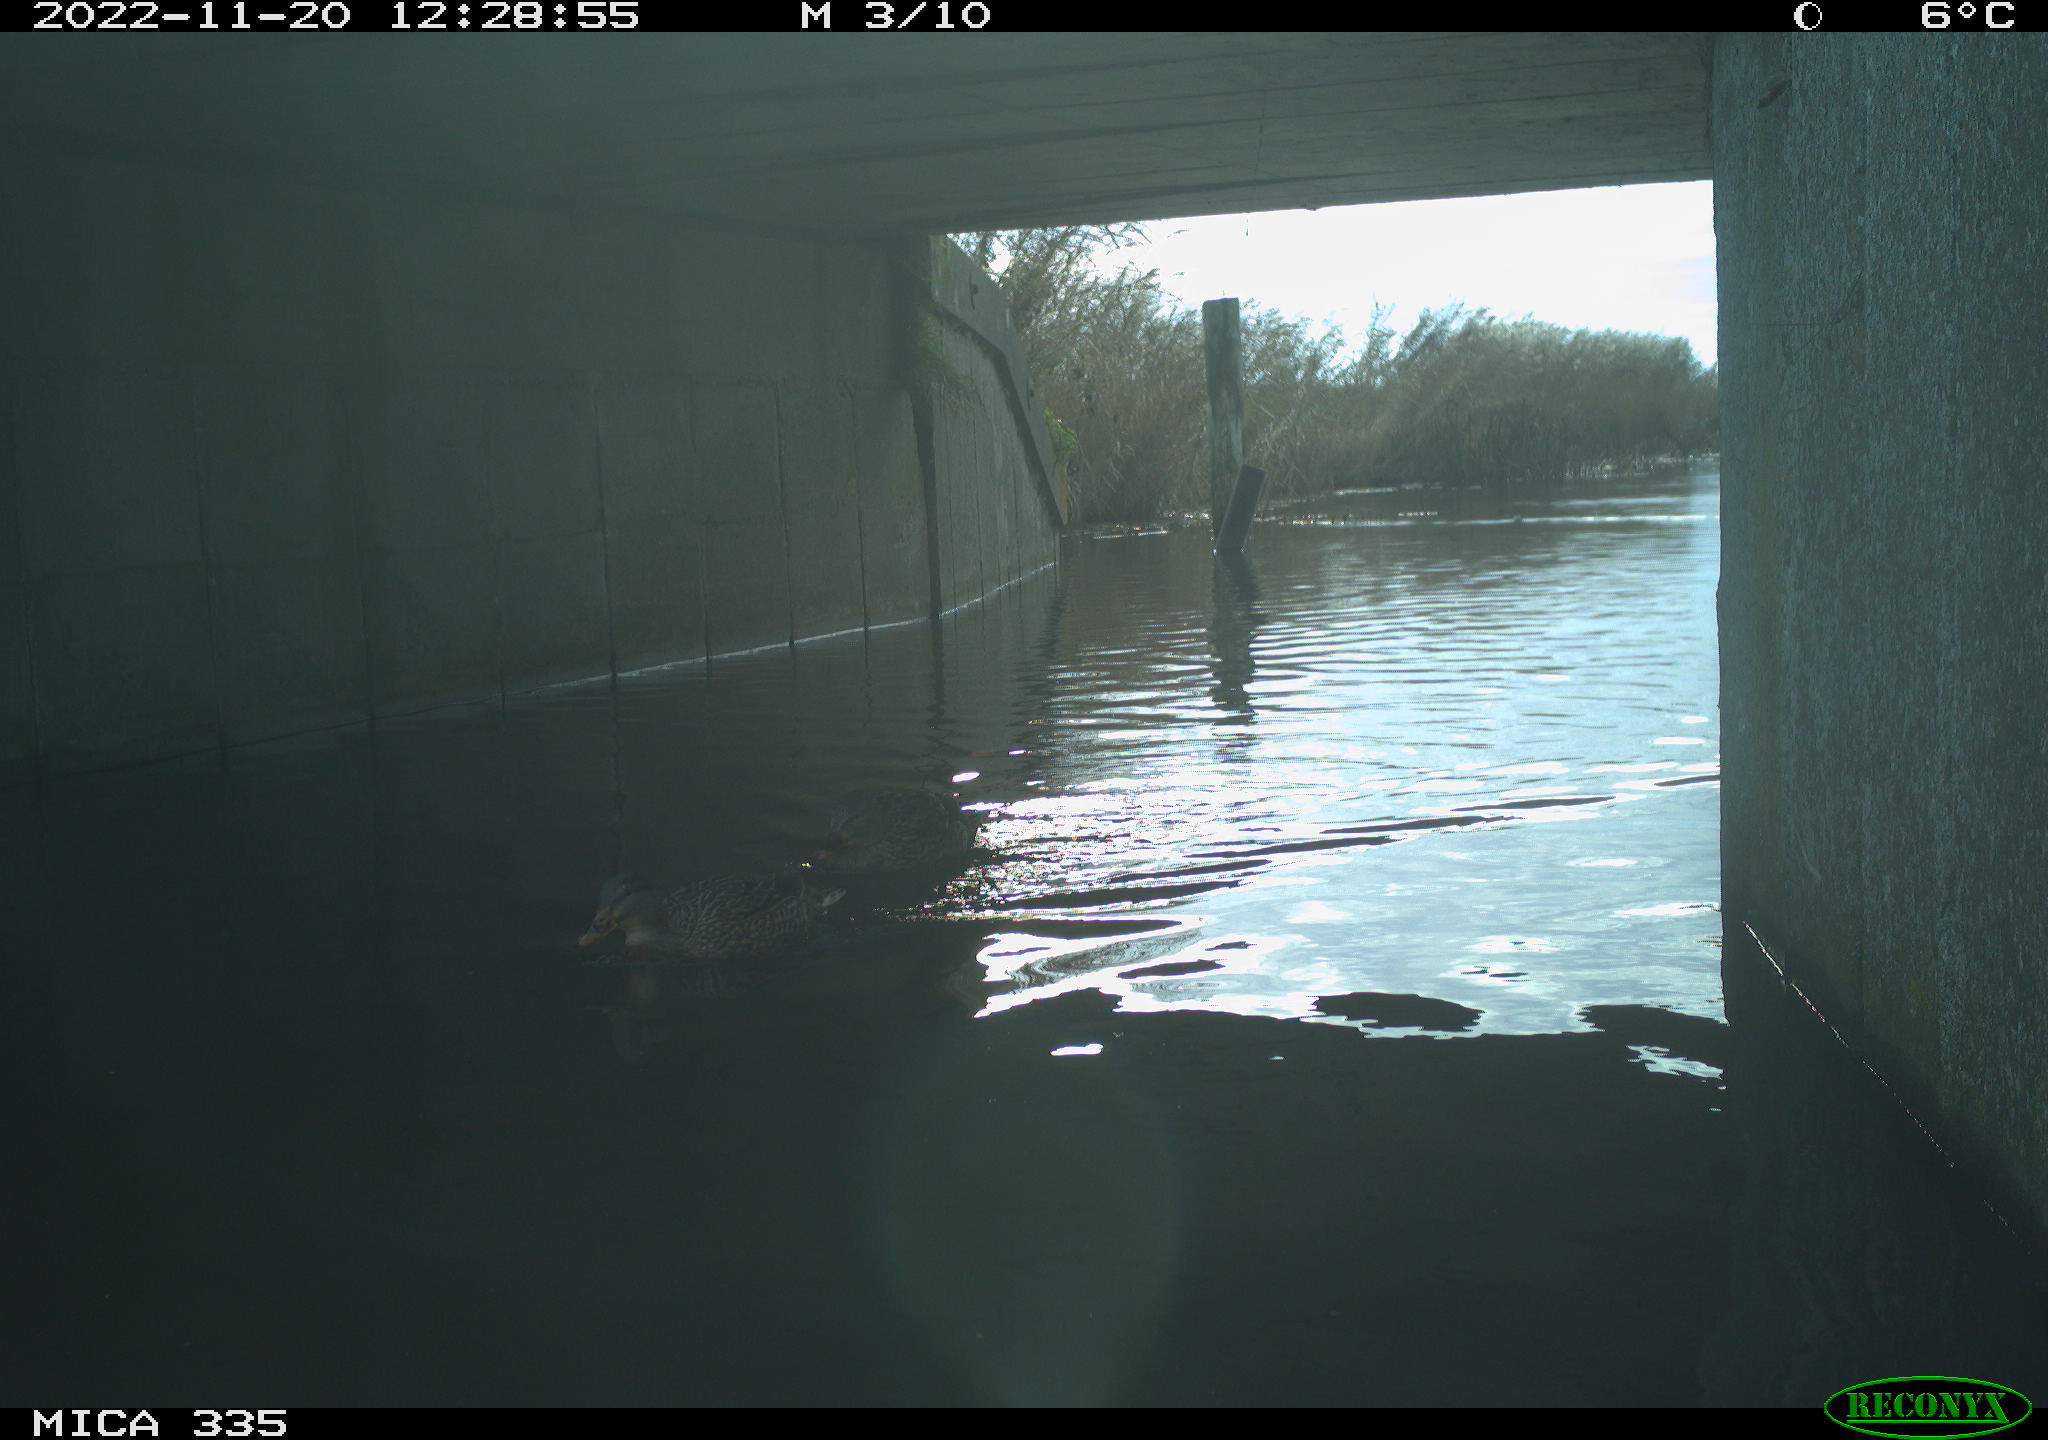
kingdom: Animalia
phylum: Chordata
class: Aves
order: Anseriformes
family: Anatidae
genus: Anas
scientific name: Anas platyrhynchos
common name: Mallard
